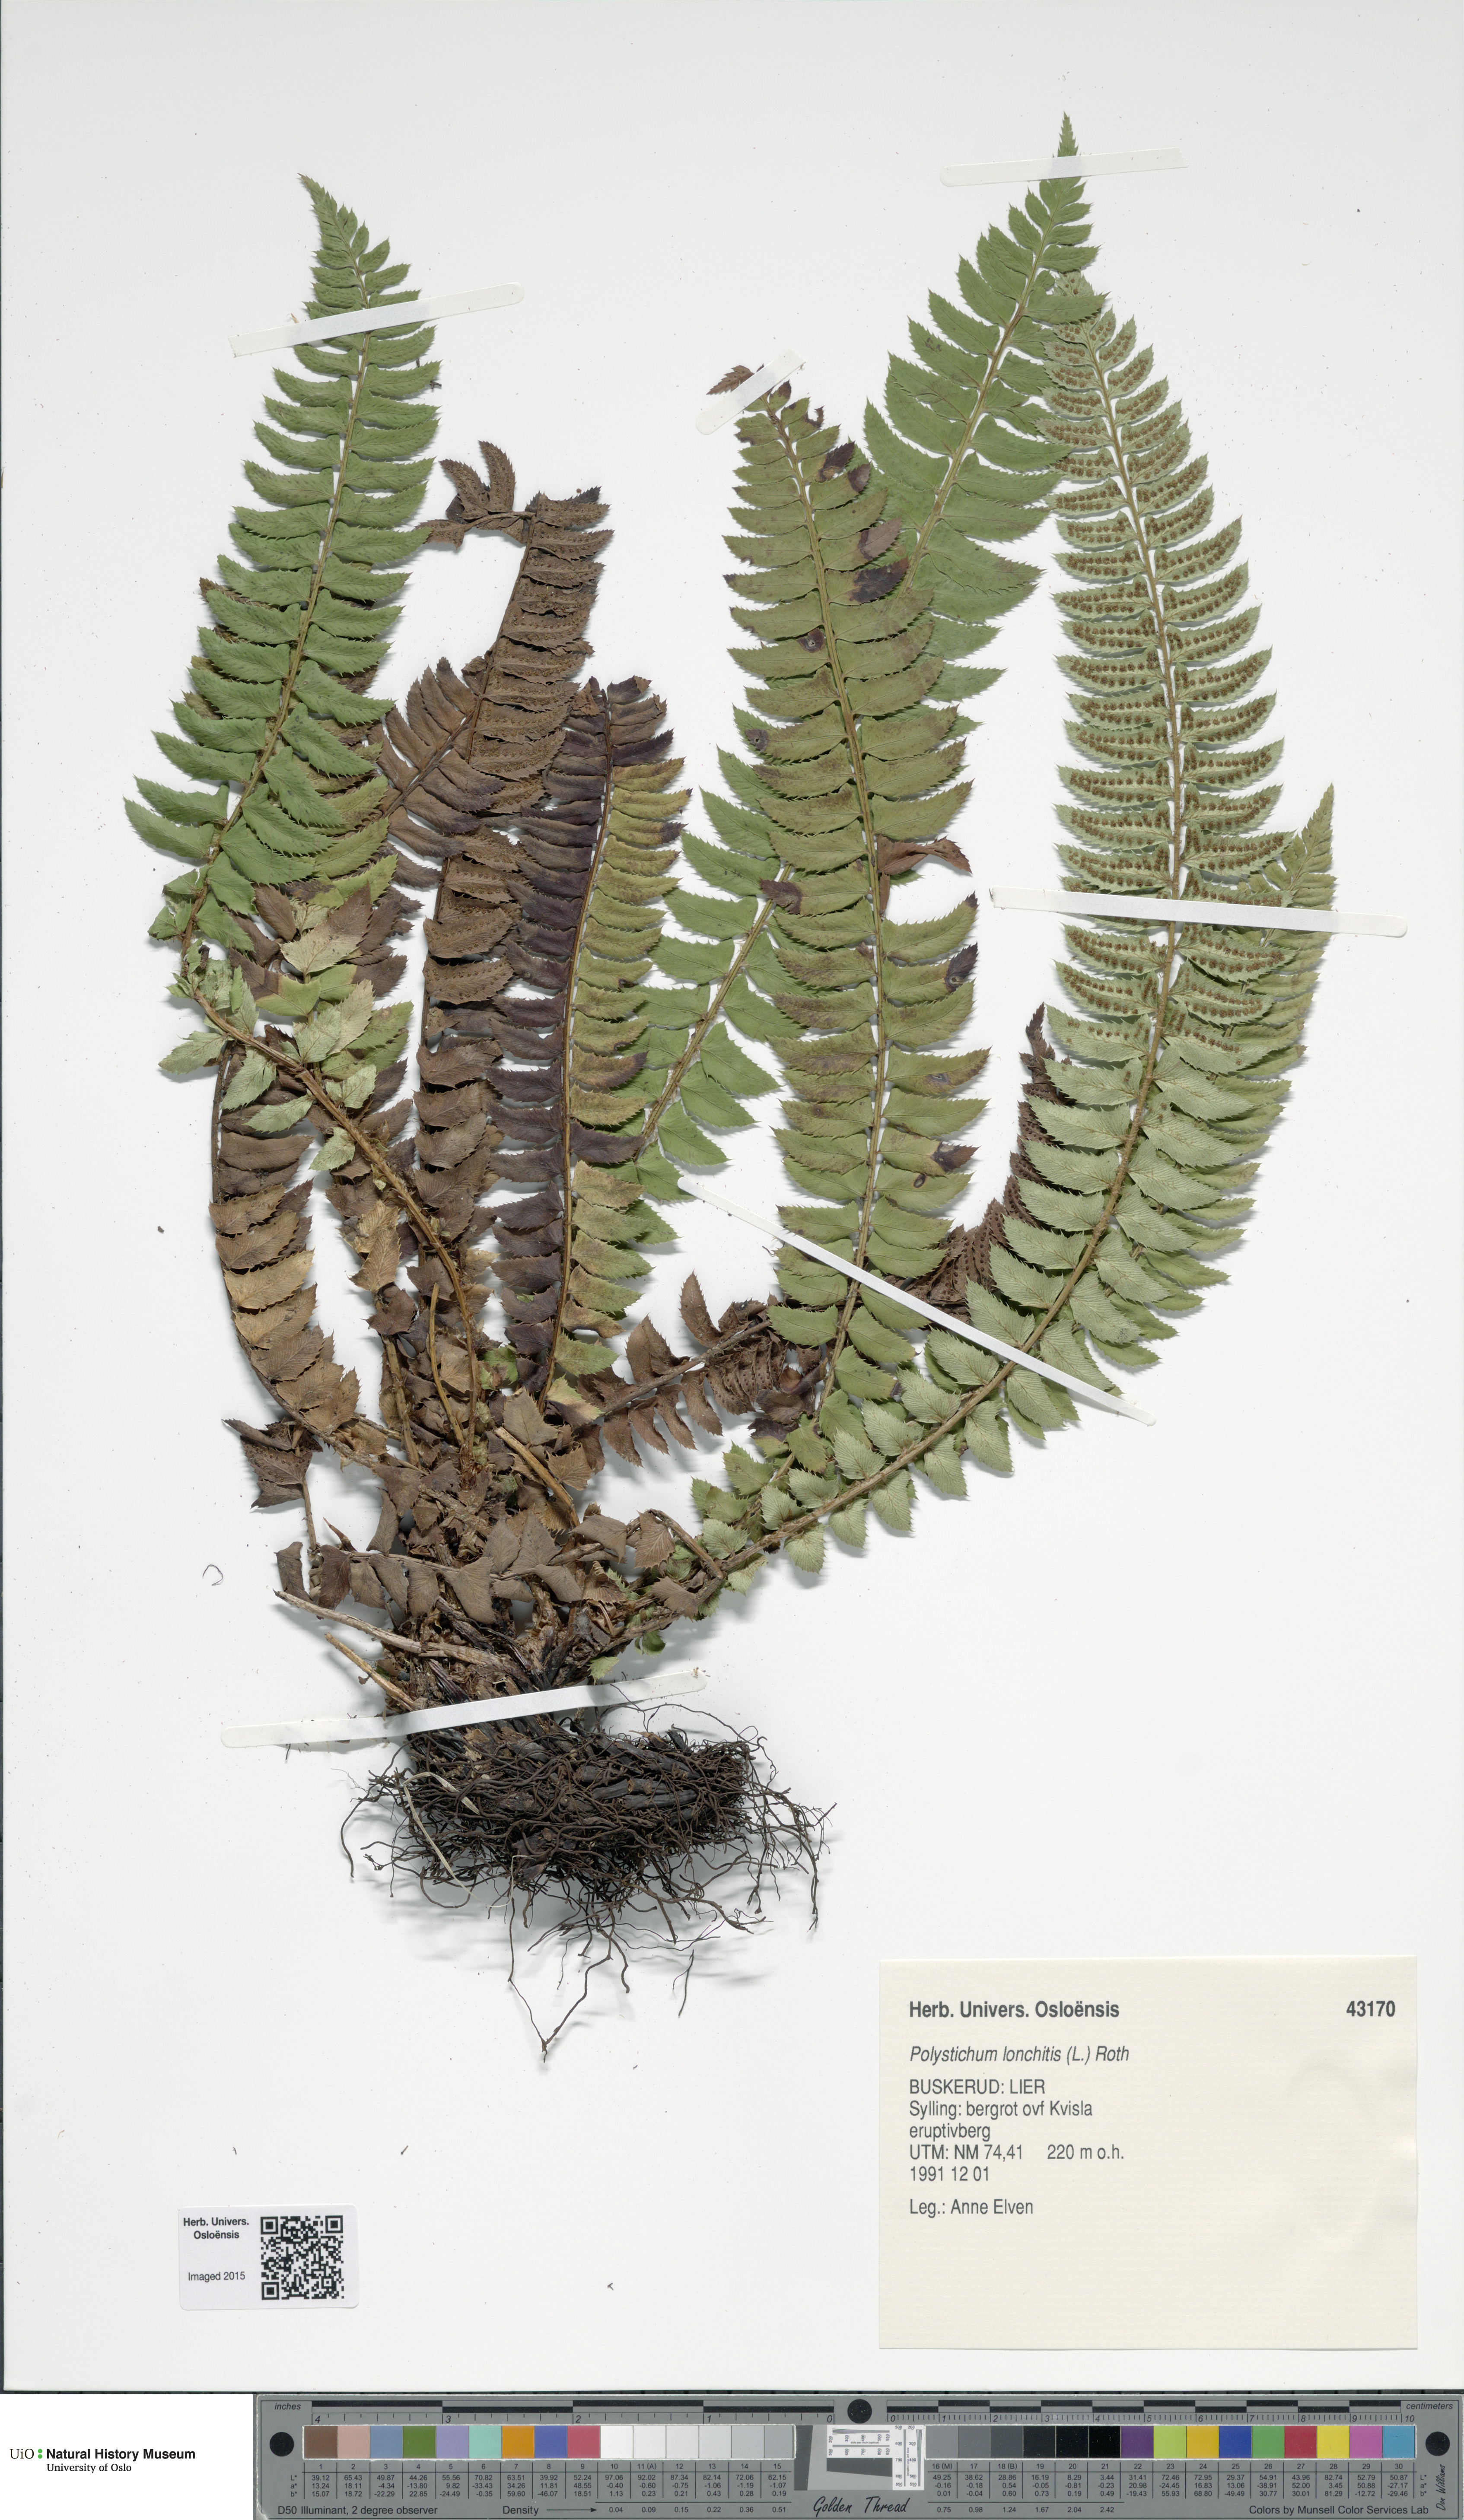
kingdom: Plantae
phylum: Tracheophyta
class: Polypodiopsida
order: Polypodiales
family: Dryopteridaceae
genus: Polystichum
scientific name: Polystichum lonchitis
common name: Holly fern
